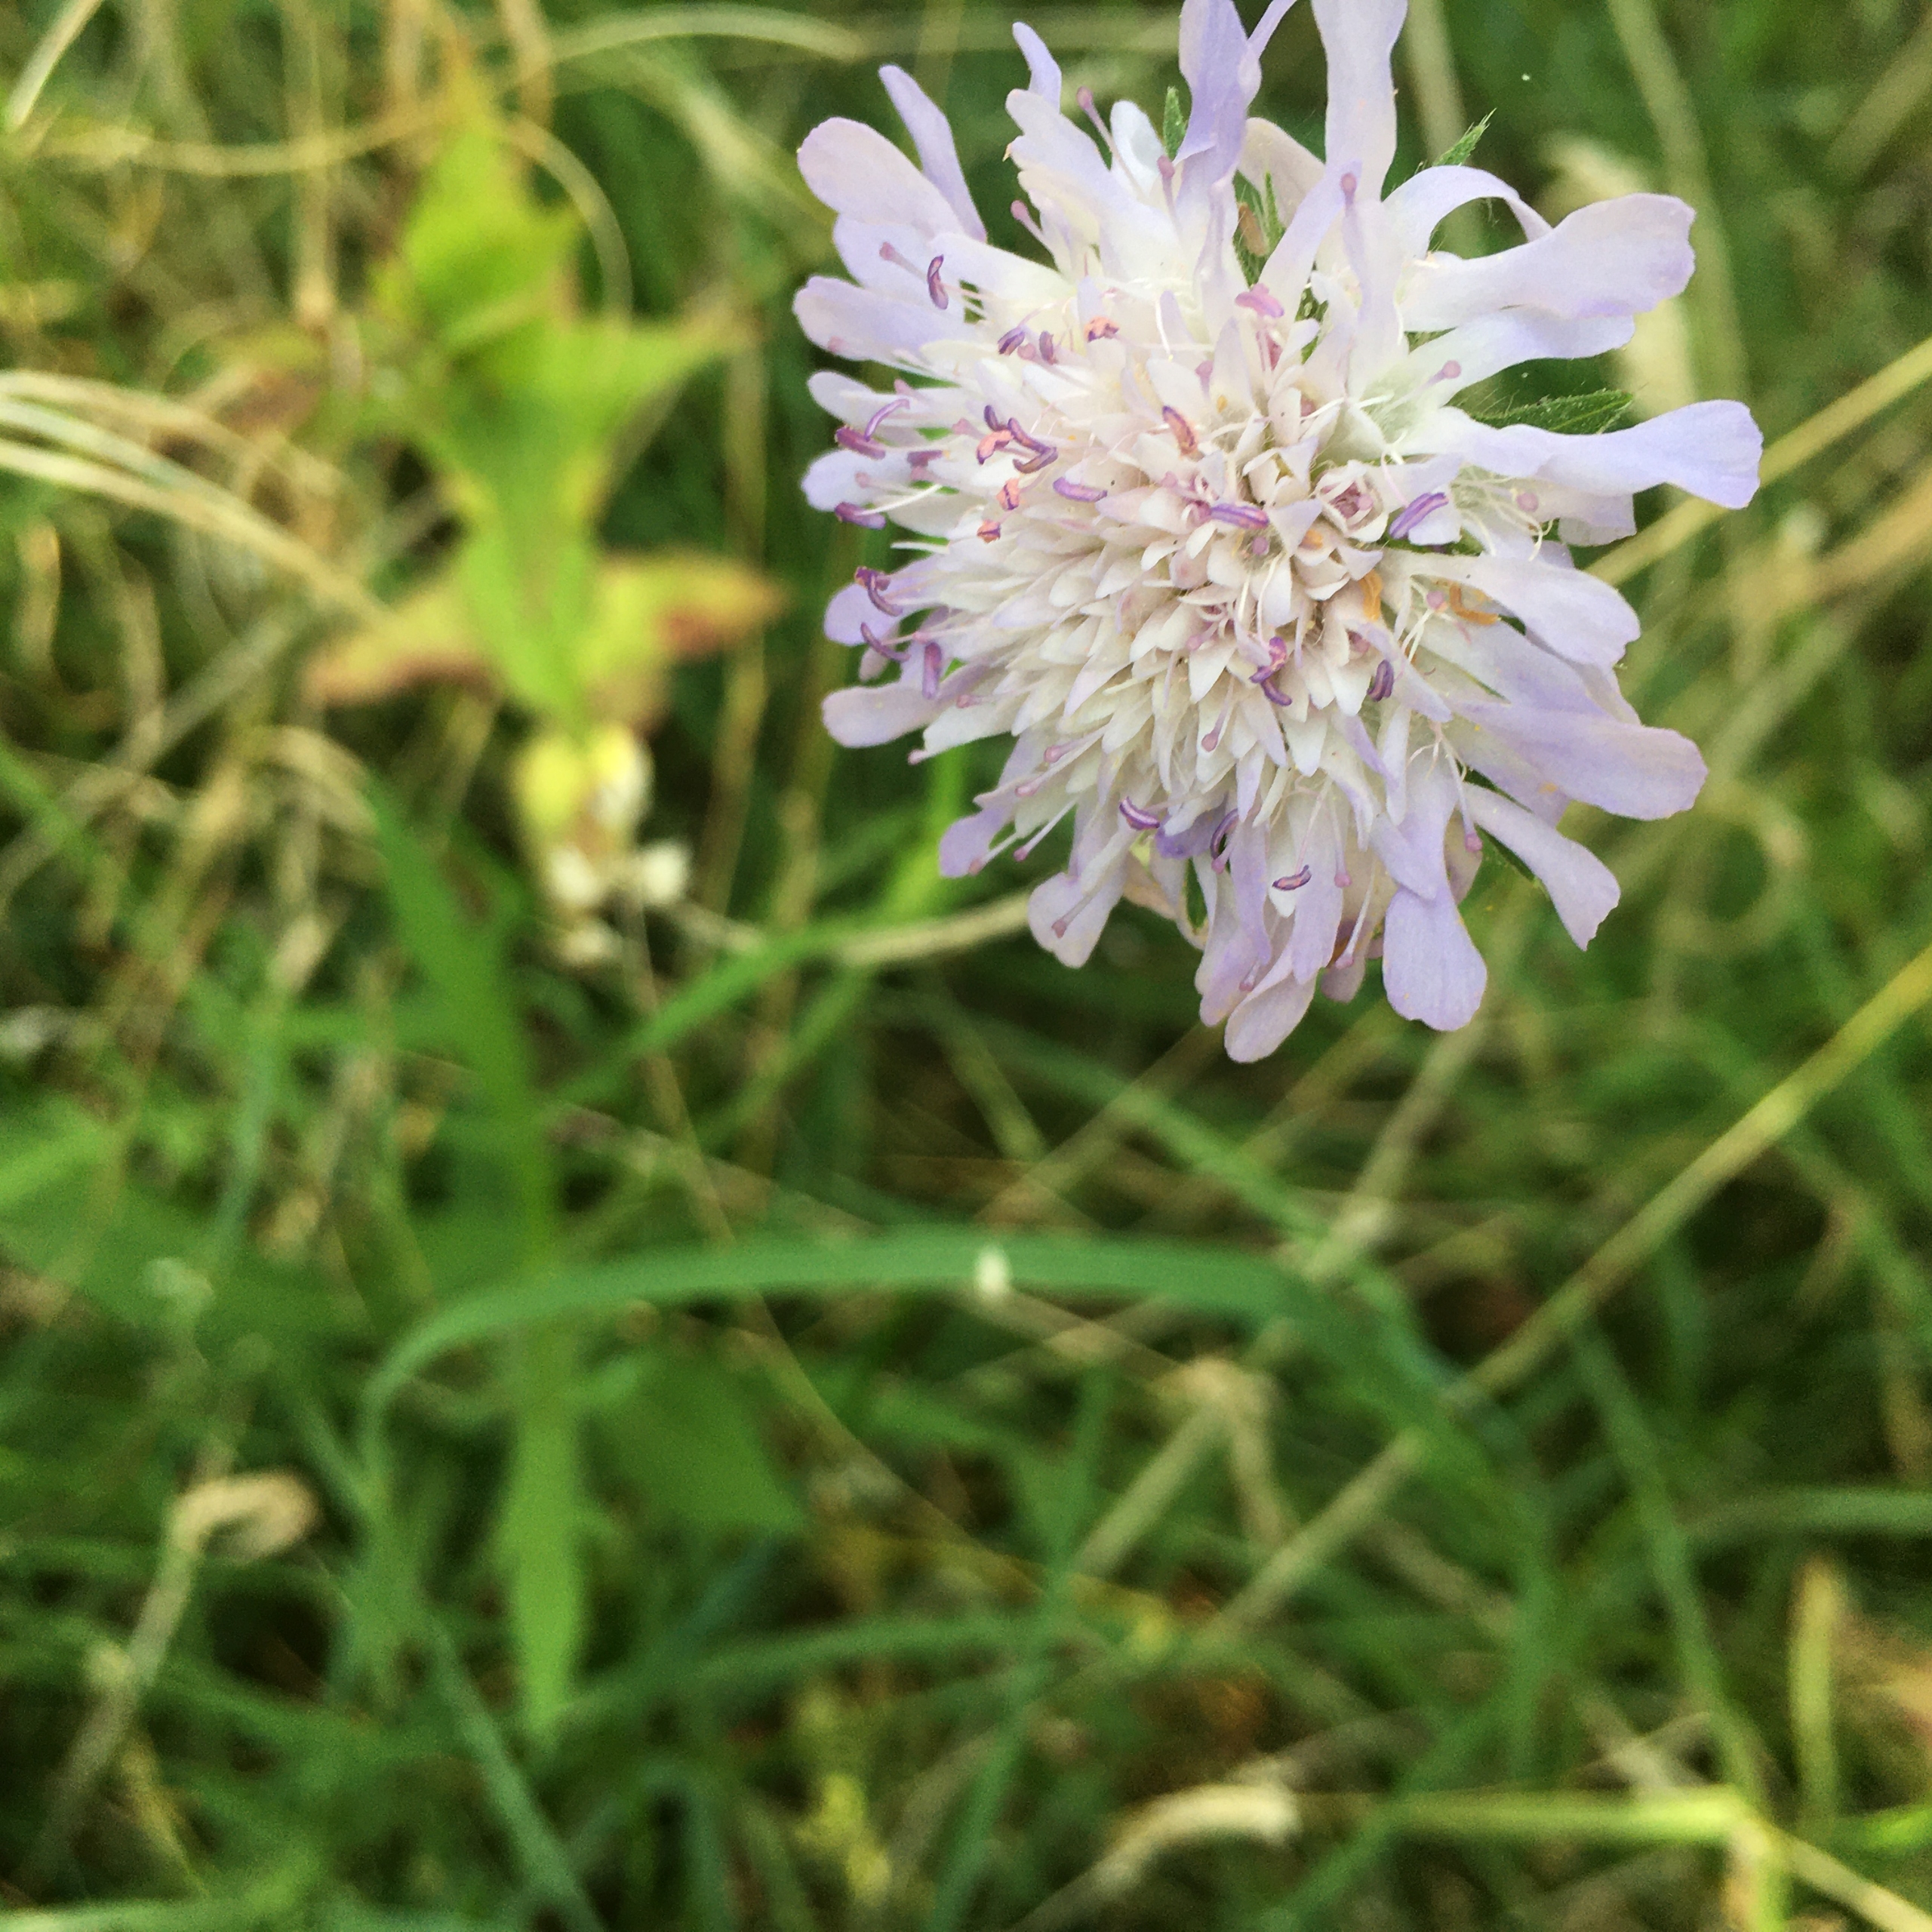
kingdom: Plantae
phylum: Tracheophyta
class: Magnoliopsida
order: Dipsacales
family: Caprifoliaceae
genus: Knautia
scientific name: Knautia arvensis
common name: Blåhat
